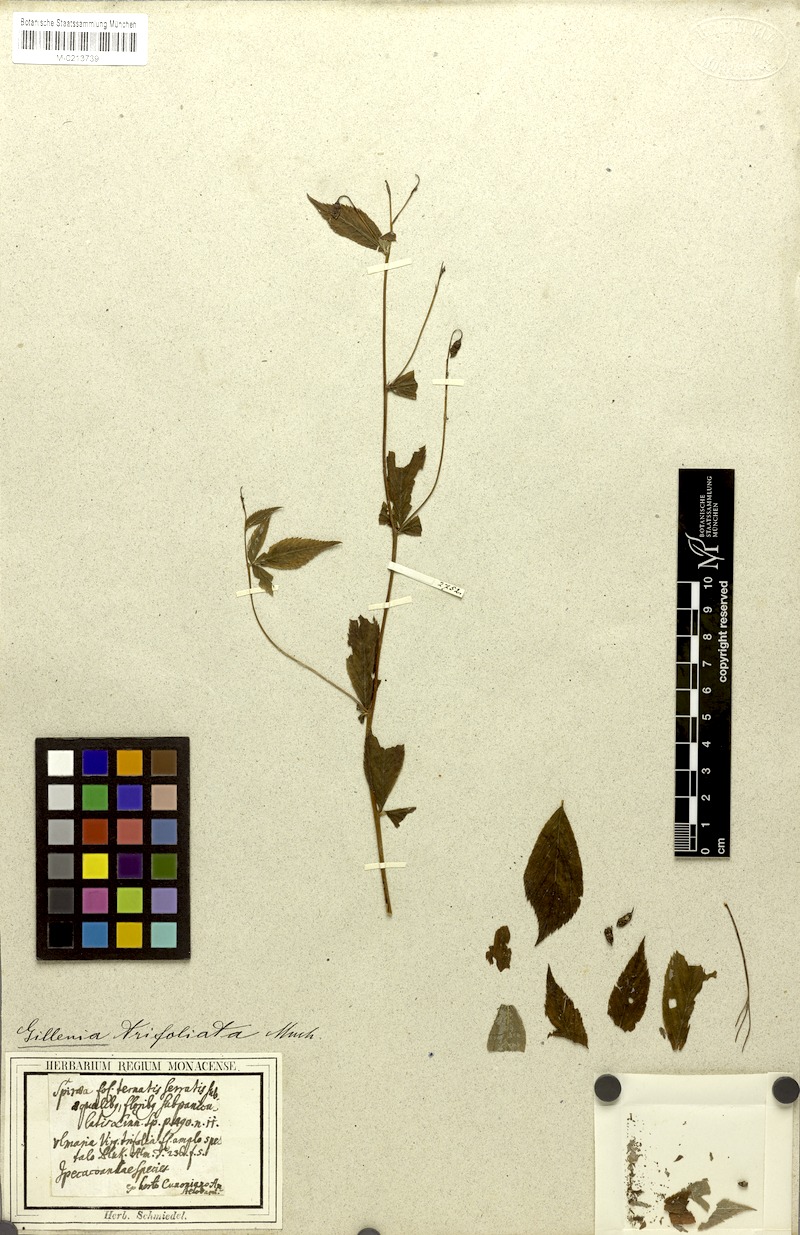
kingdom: Plantae
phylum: Tracheophyta
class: Magnoliopsida
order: Rosales
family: Rosaceae
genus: Gillenia
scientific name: Gillenia trifoliata
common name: Bowman's-root
